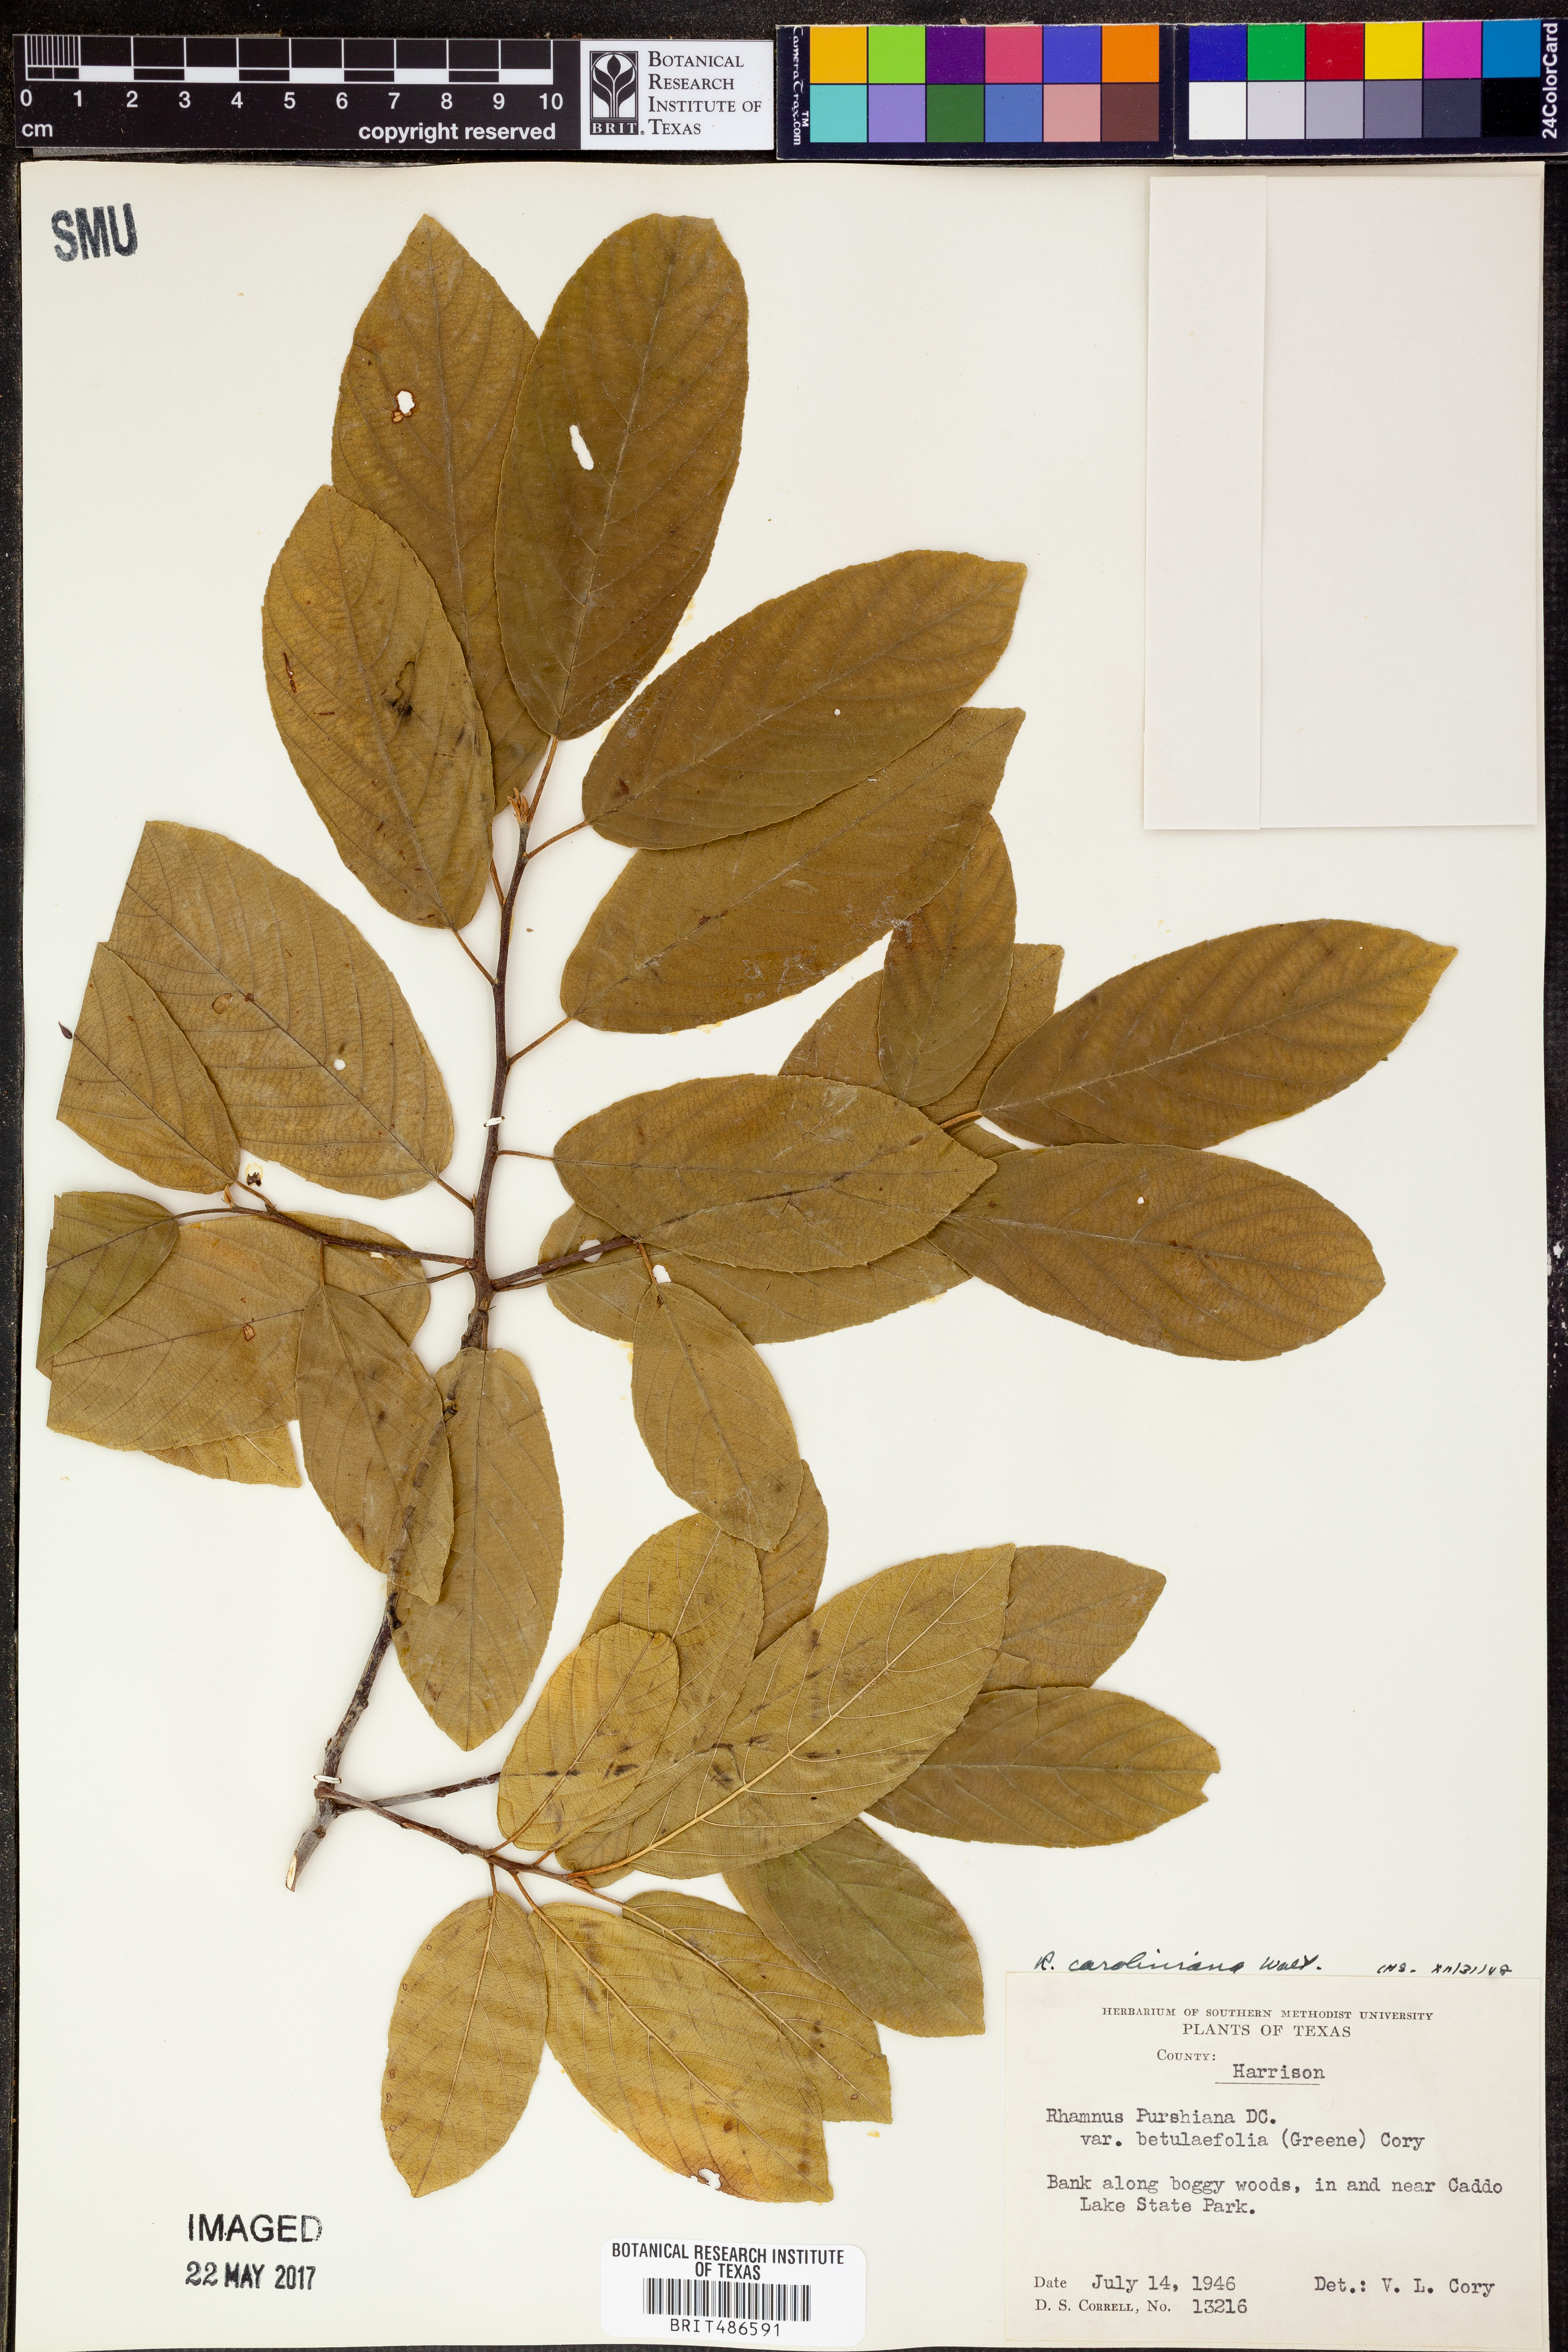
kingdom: Plantae
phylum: Tracheophyta
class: Magnoliopsida
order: Rosales
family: Rhamnaceae
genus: Frangula
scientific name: Frangula caroliniana
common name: Carolina buckthorn
